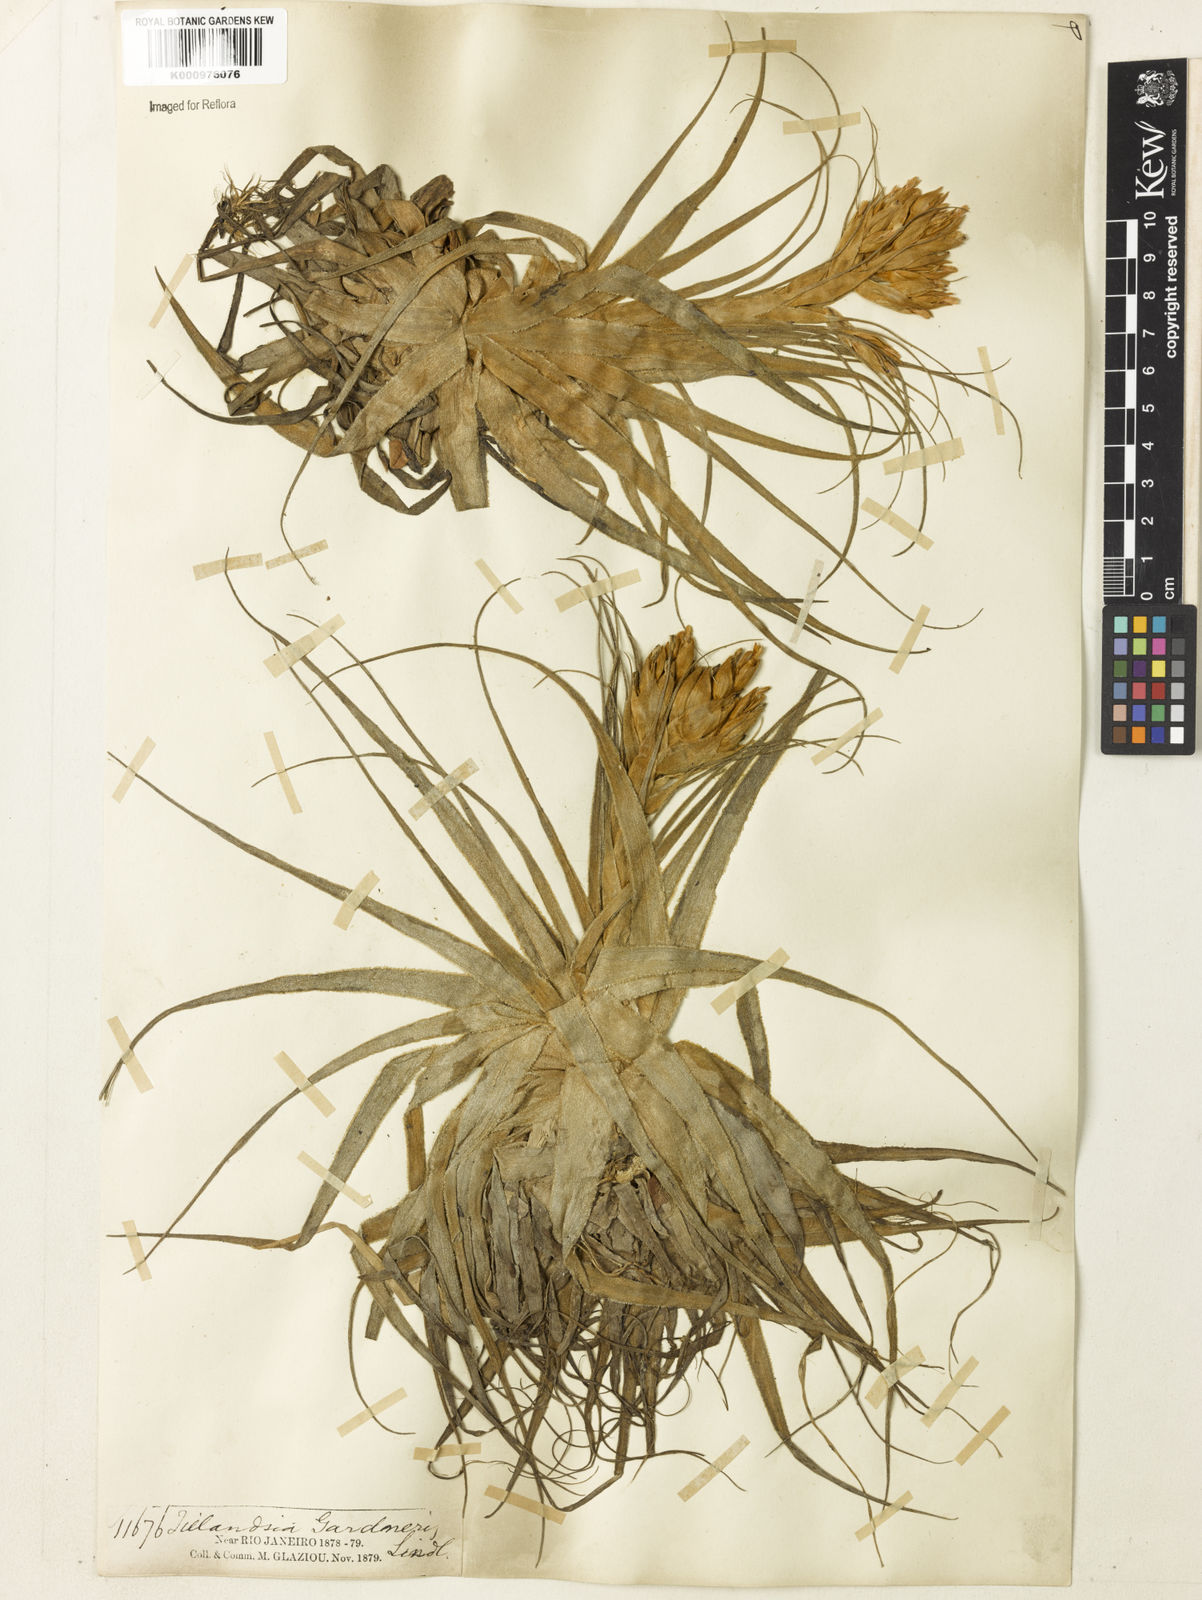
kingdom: Plantae
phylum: Tracheophyta
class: Liliopsida
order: Poales
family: Bromeliaceae
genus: Tillandsia
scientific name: Tillandsia gardneri
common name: Airplant
